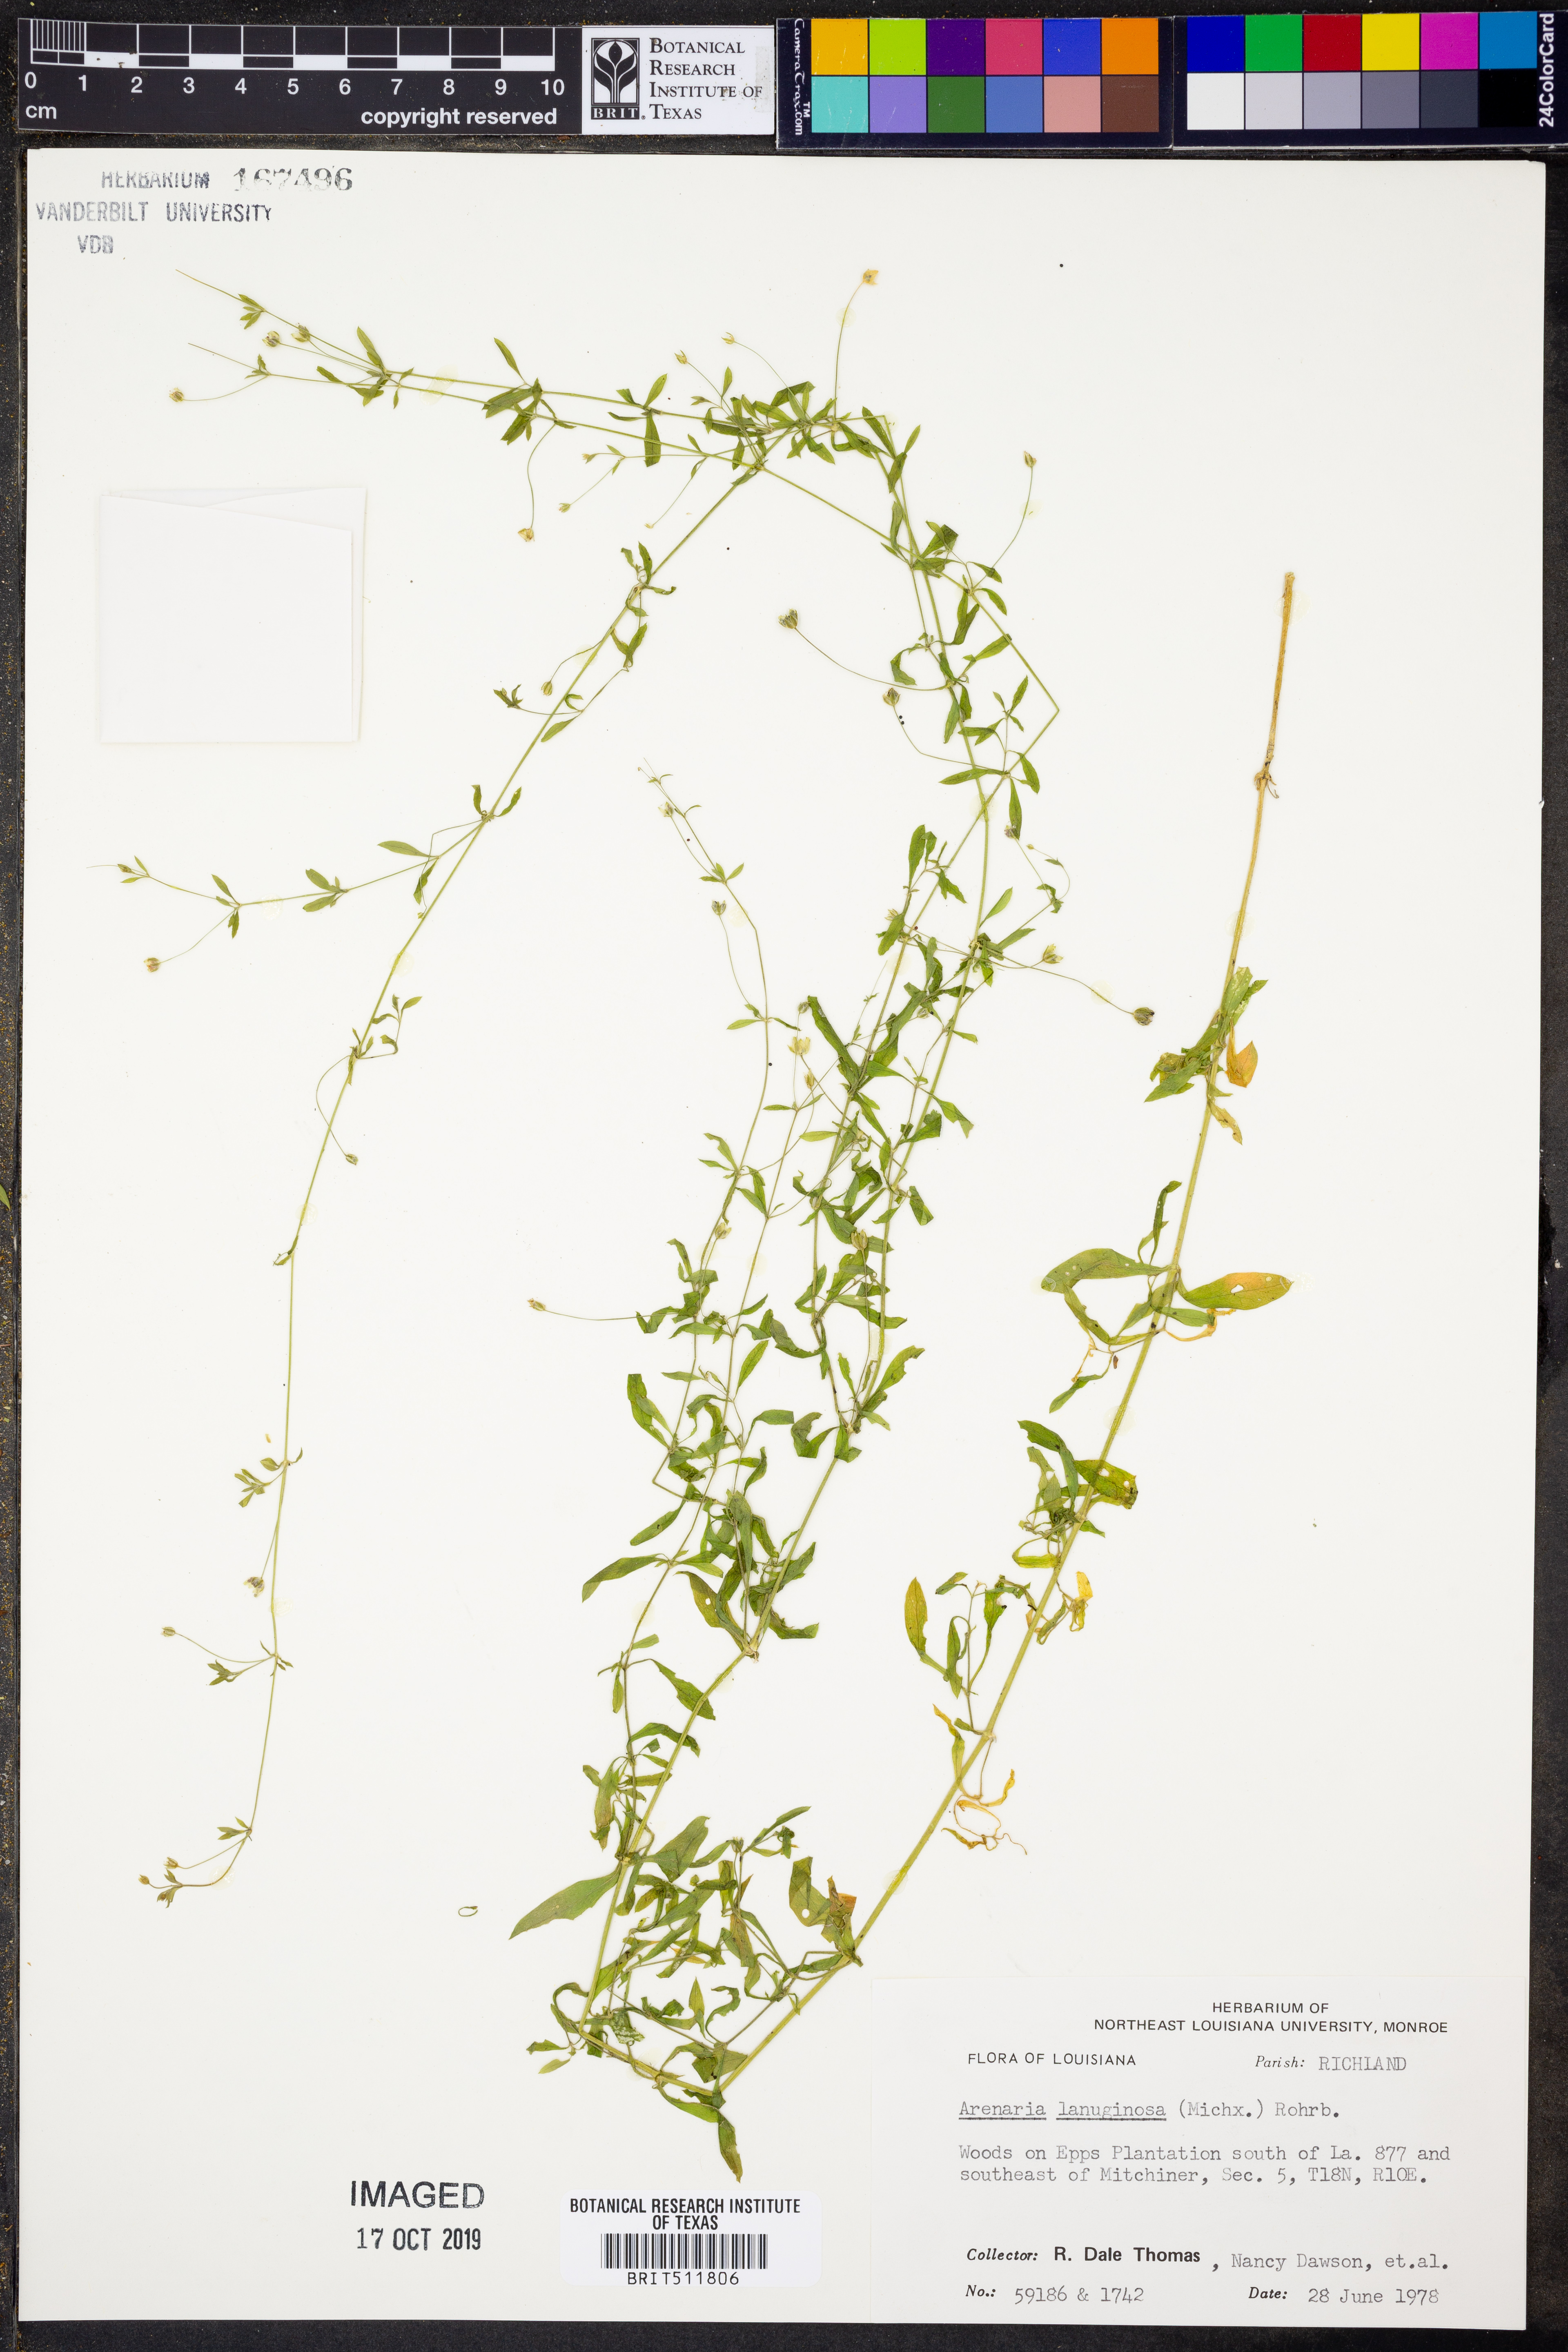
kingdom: Plantae
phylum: Tracheophyta
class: Magnoliopsida
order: Caryophyllales
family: Caryophyllaceae
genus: Arenaria
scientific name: Arenaria lanuginosa
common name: Spread sandwort
